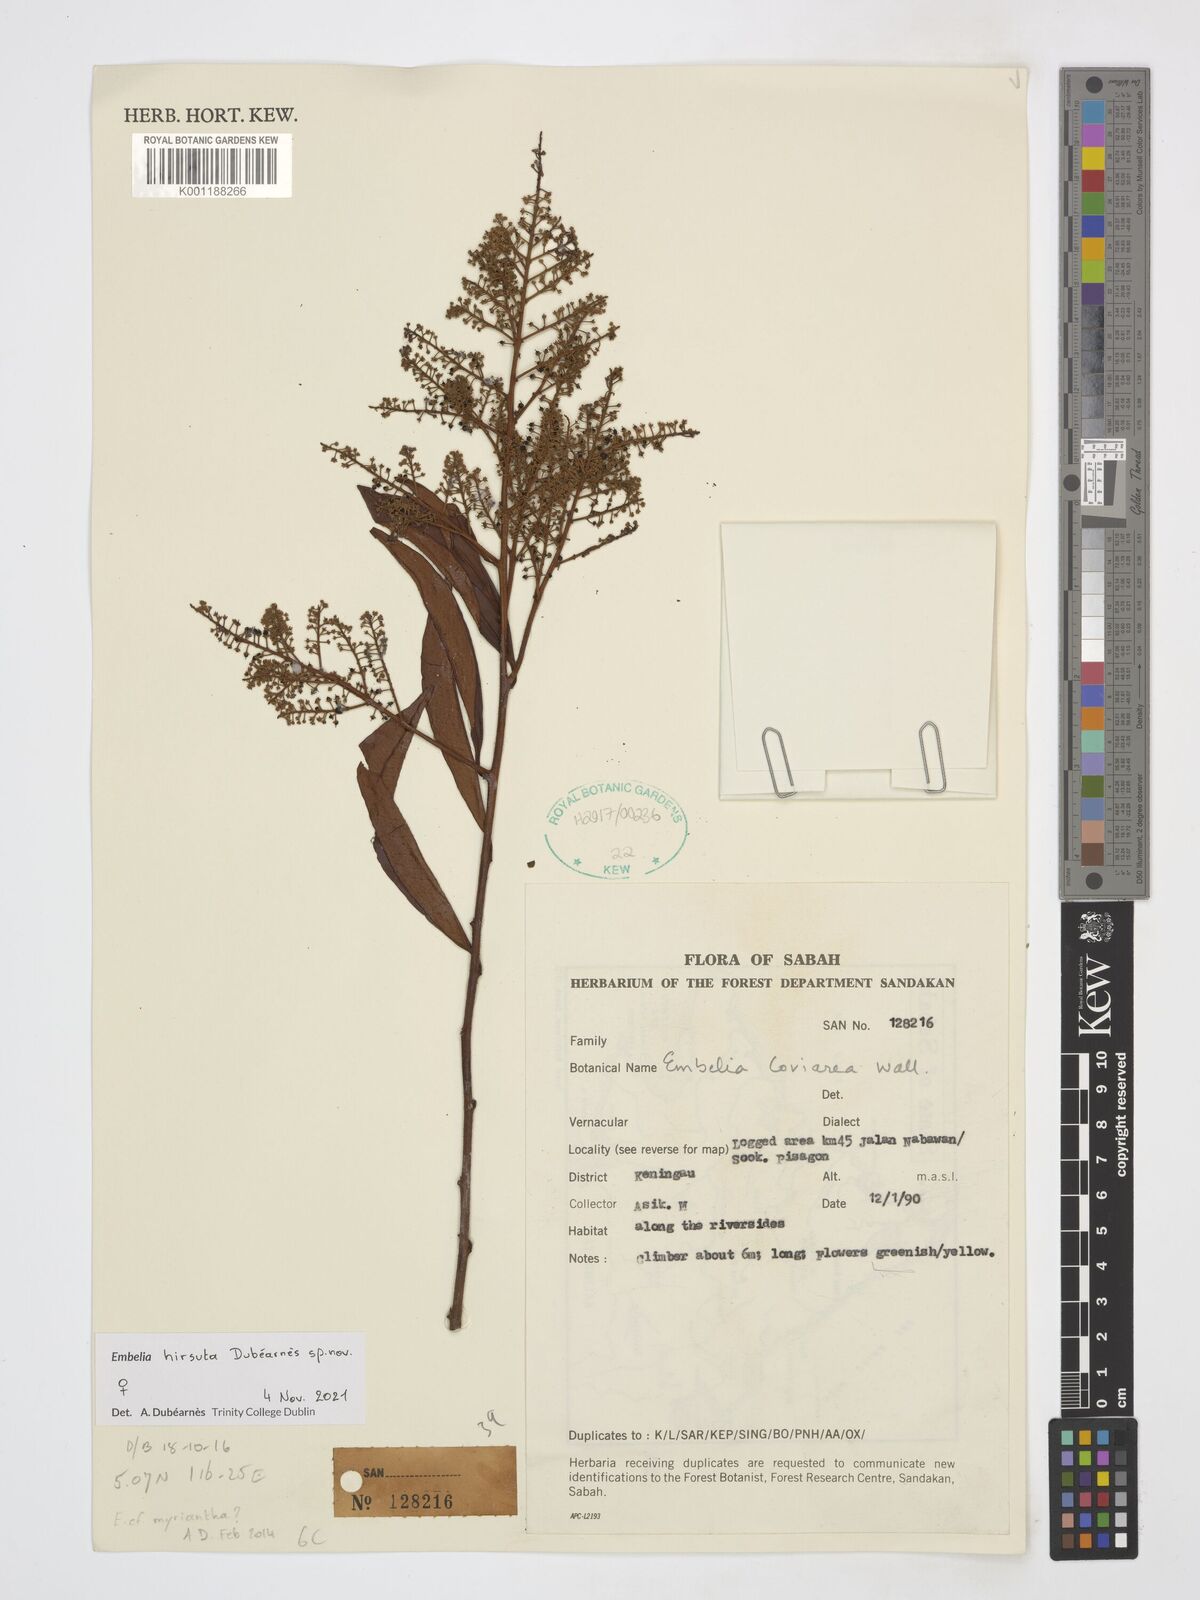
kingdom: Plantae
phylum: Tracheophyta
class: Magnoliopsida
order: Ericales
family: Primulaceae
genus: Embelia
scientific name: Embelia
